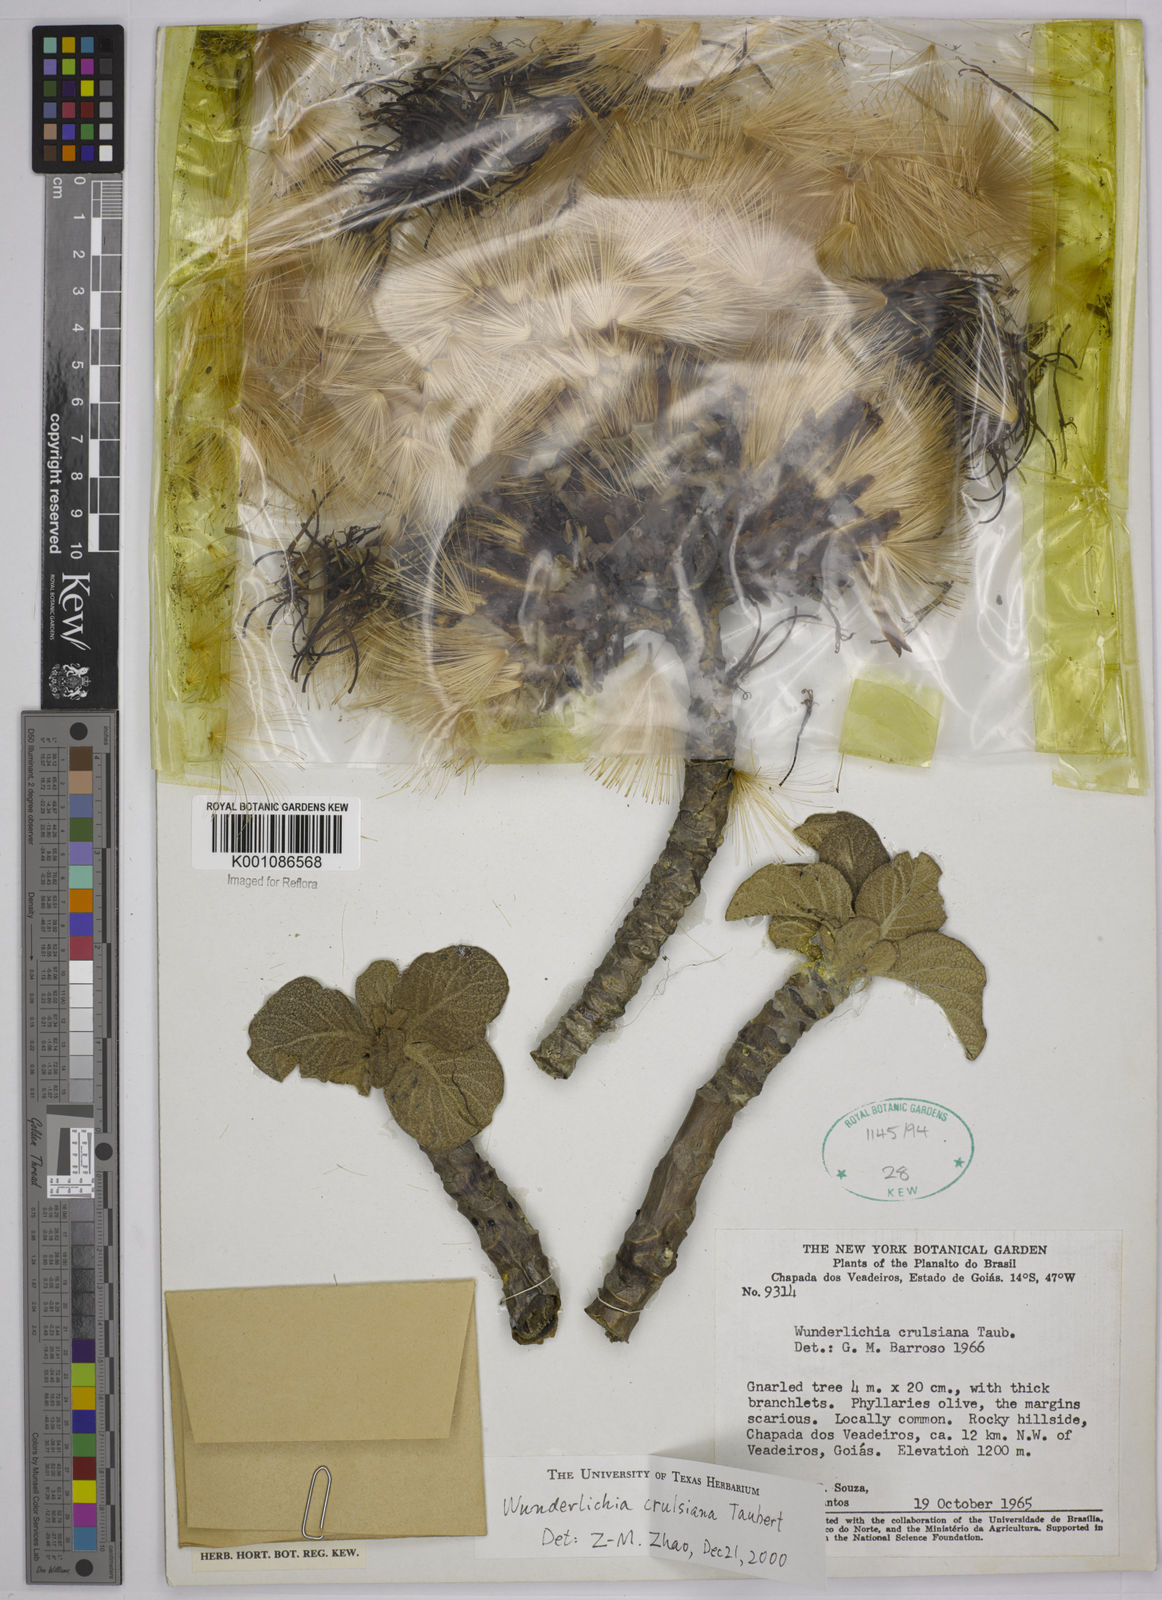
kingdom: Plantae
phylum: Tracheophyta
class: Magnoliopsida
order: Asterales
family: Asteraceae
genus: Wunderlichia
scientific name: Wunderlichia
